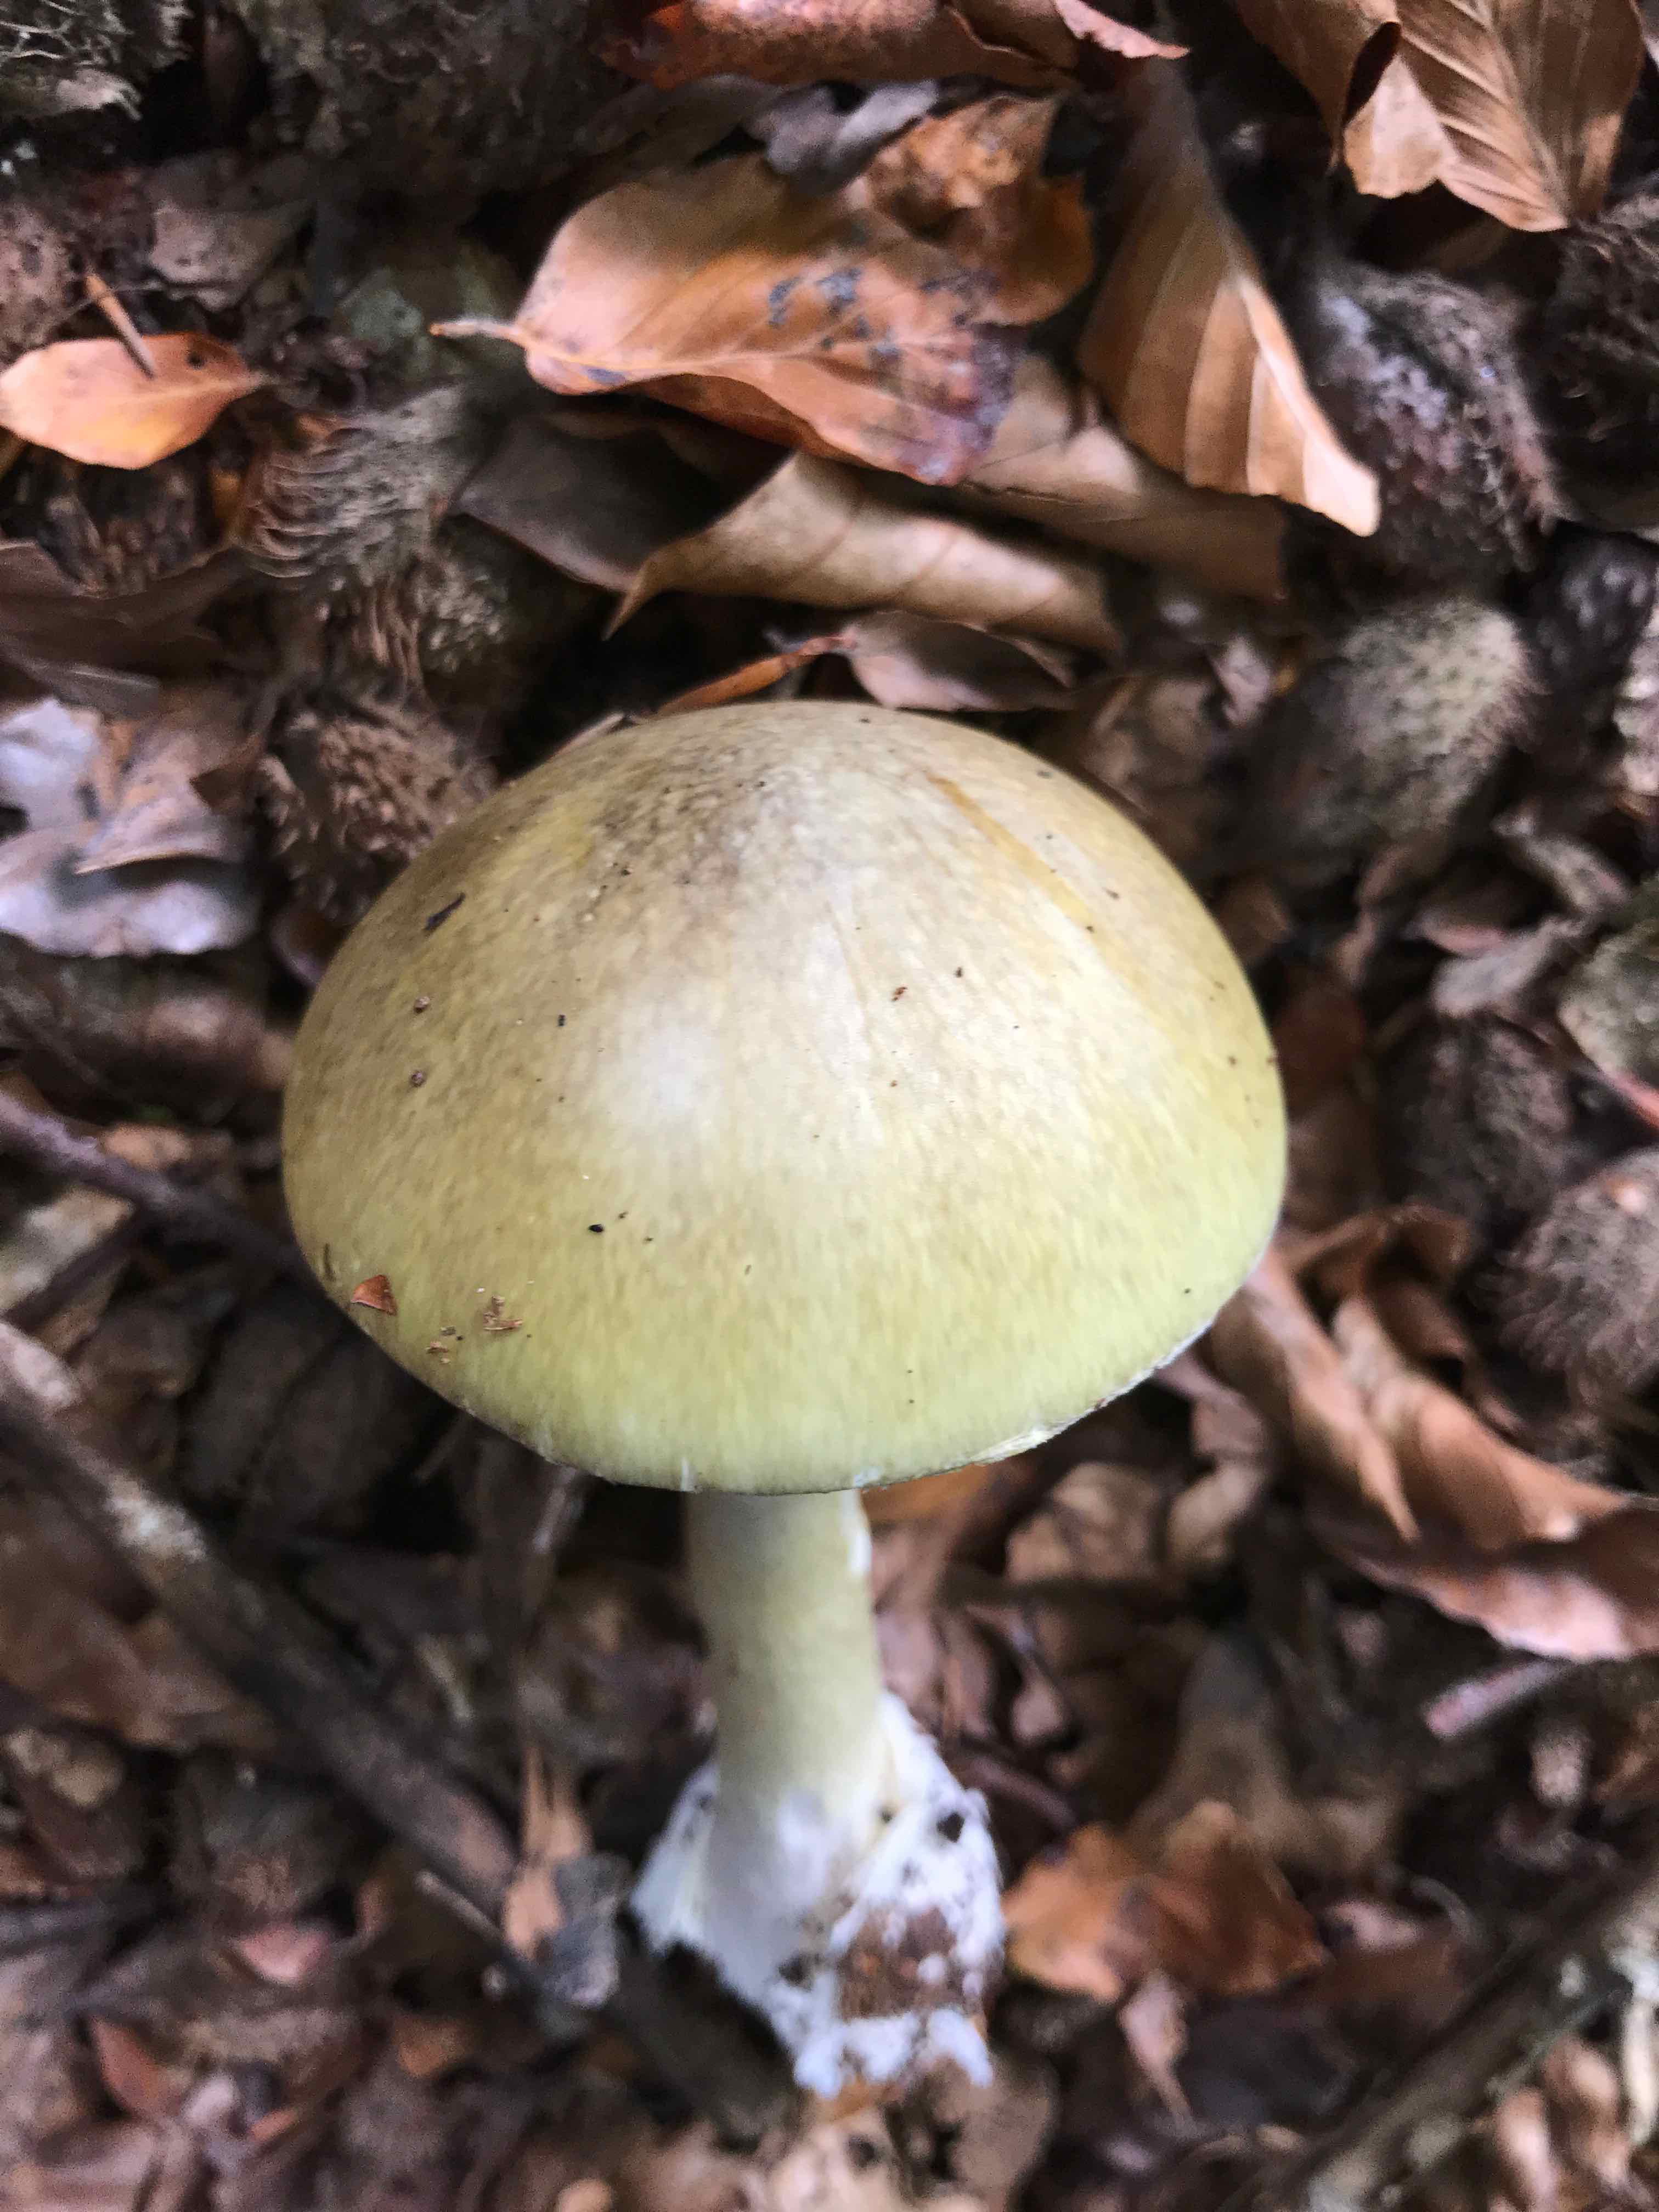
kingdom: Fungi
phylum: Basidiomycota
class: Agaricomycetes
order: Agaricales
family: Amanitaceae
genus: Amanita
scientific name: Amanita phalloides
